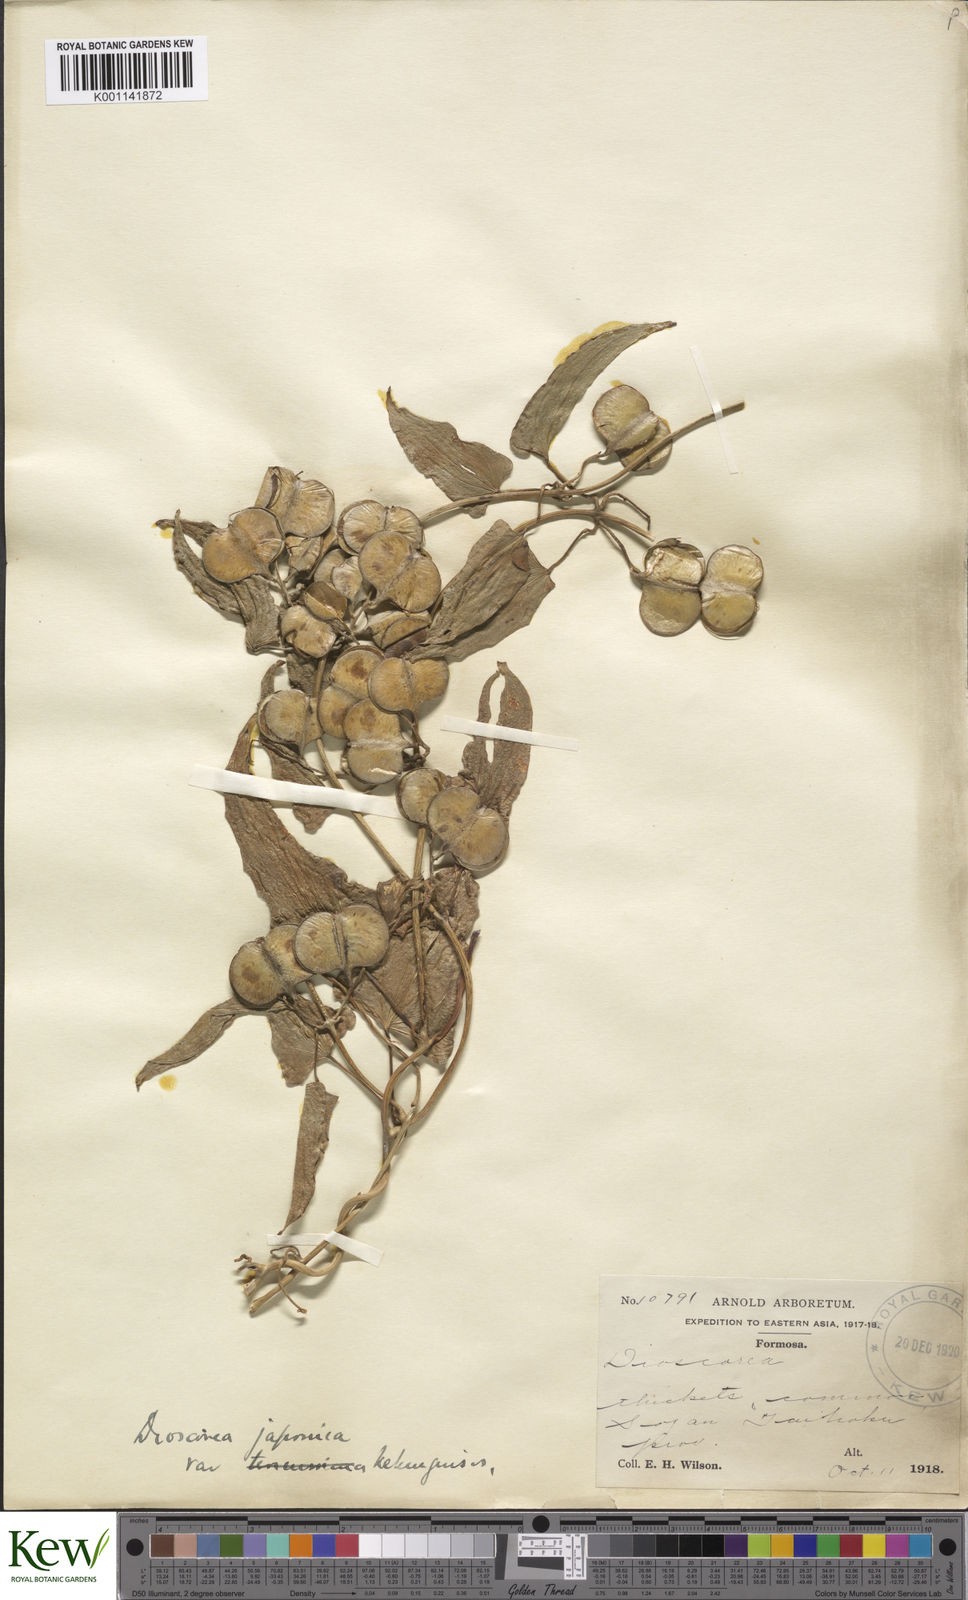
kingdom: Plantae
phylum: Tracheophyta
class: Liliopsida
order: Dioscoreales
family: Dioscoreaceae
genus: Dioscorea
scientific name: Dioscorea japonica
